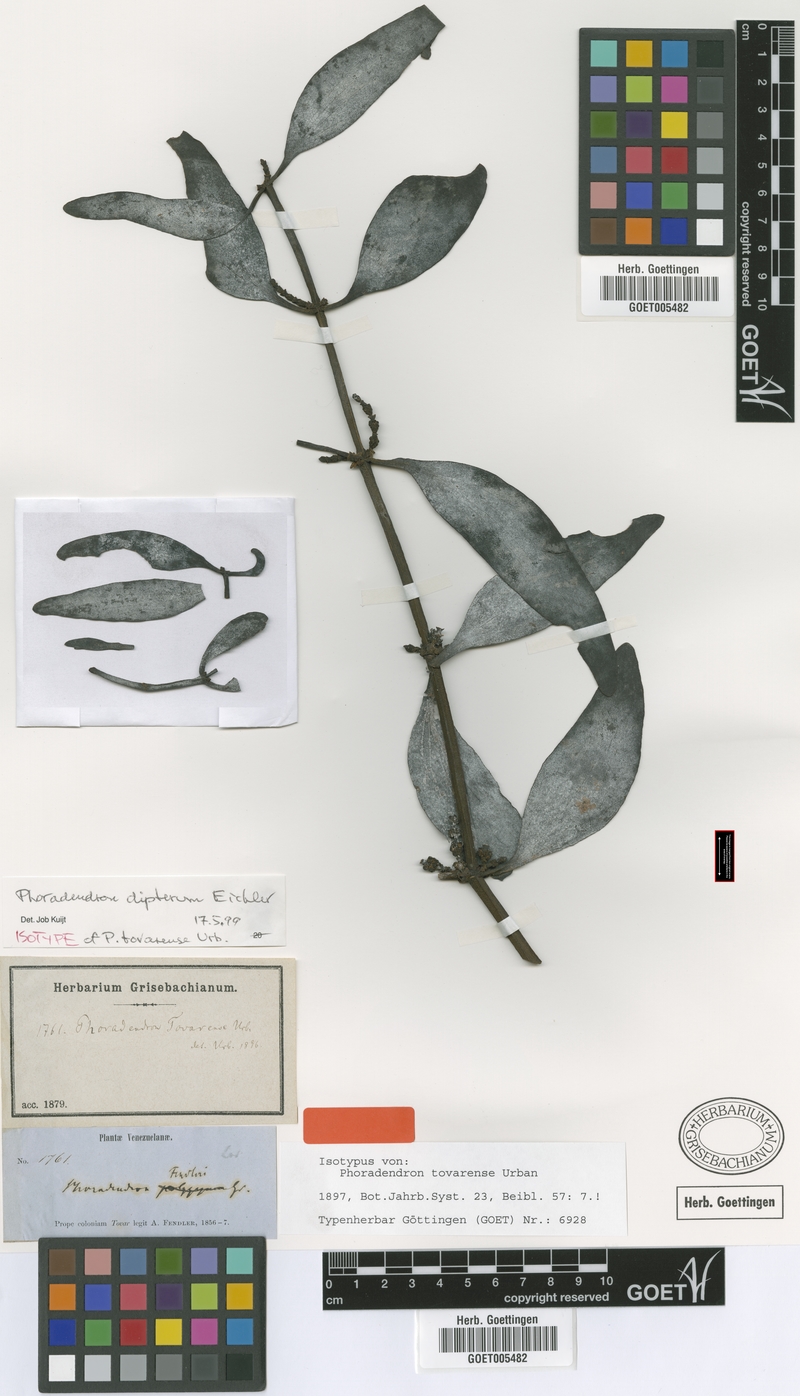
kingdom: Plantae
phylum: Tracheophyta
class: Magnoliopsida
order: Santalales
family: Viscaceae
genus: Phoradendron
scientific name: Phoradendron dipterum
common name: Fourpart mistletoe
